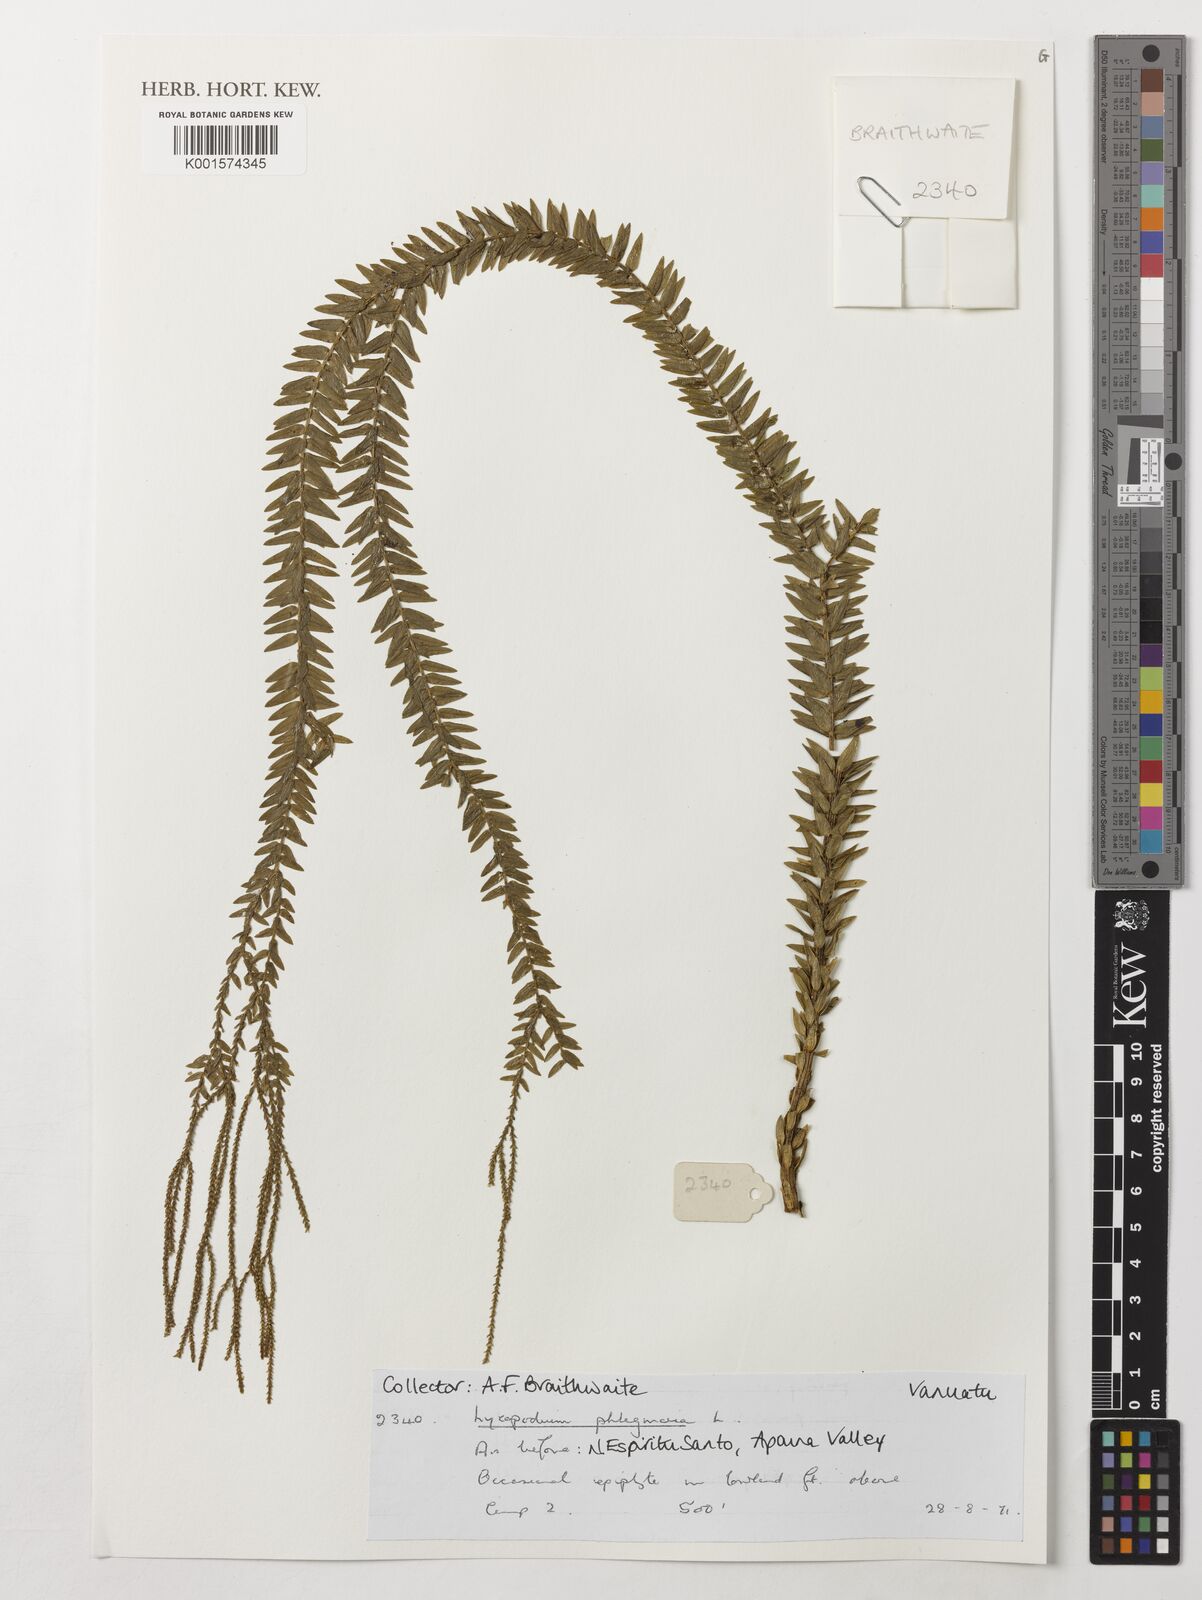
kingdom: Plantae
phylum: Tracheophyta
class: Lycopodiopsida
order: Lycopodiales
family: Lycopodiaceae
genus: Phlegmariurus
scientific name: Phlegmariurus phlegmaria
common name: Coarse tassel-fern
